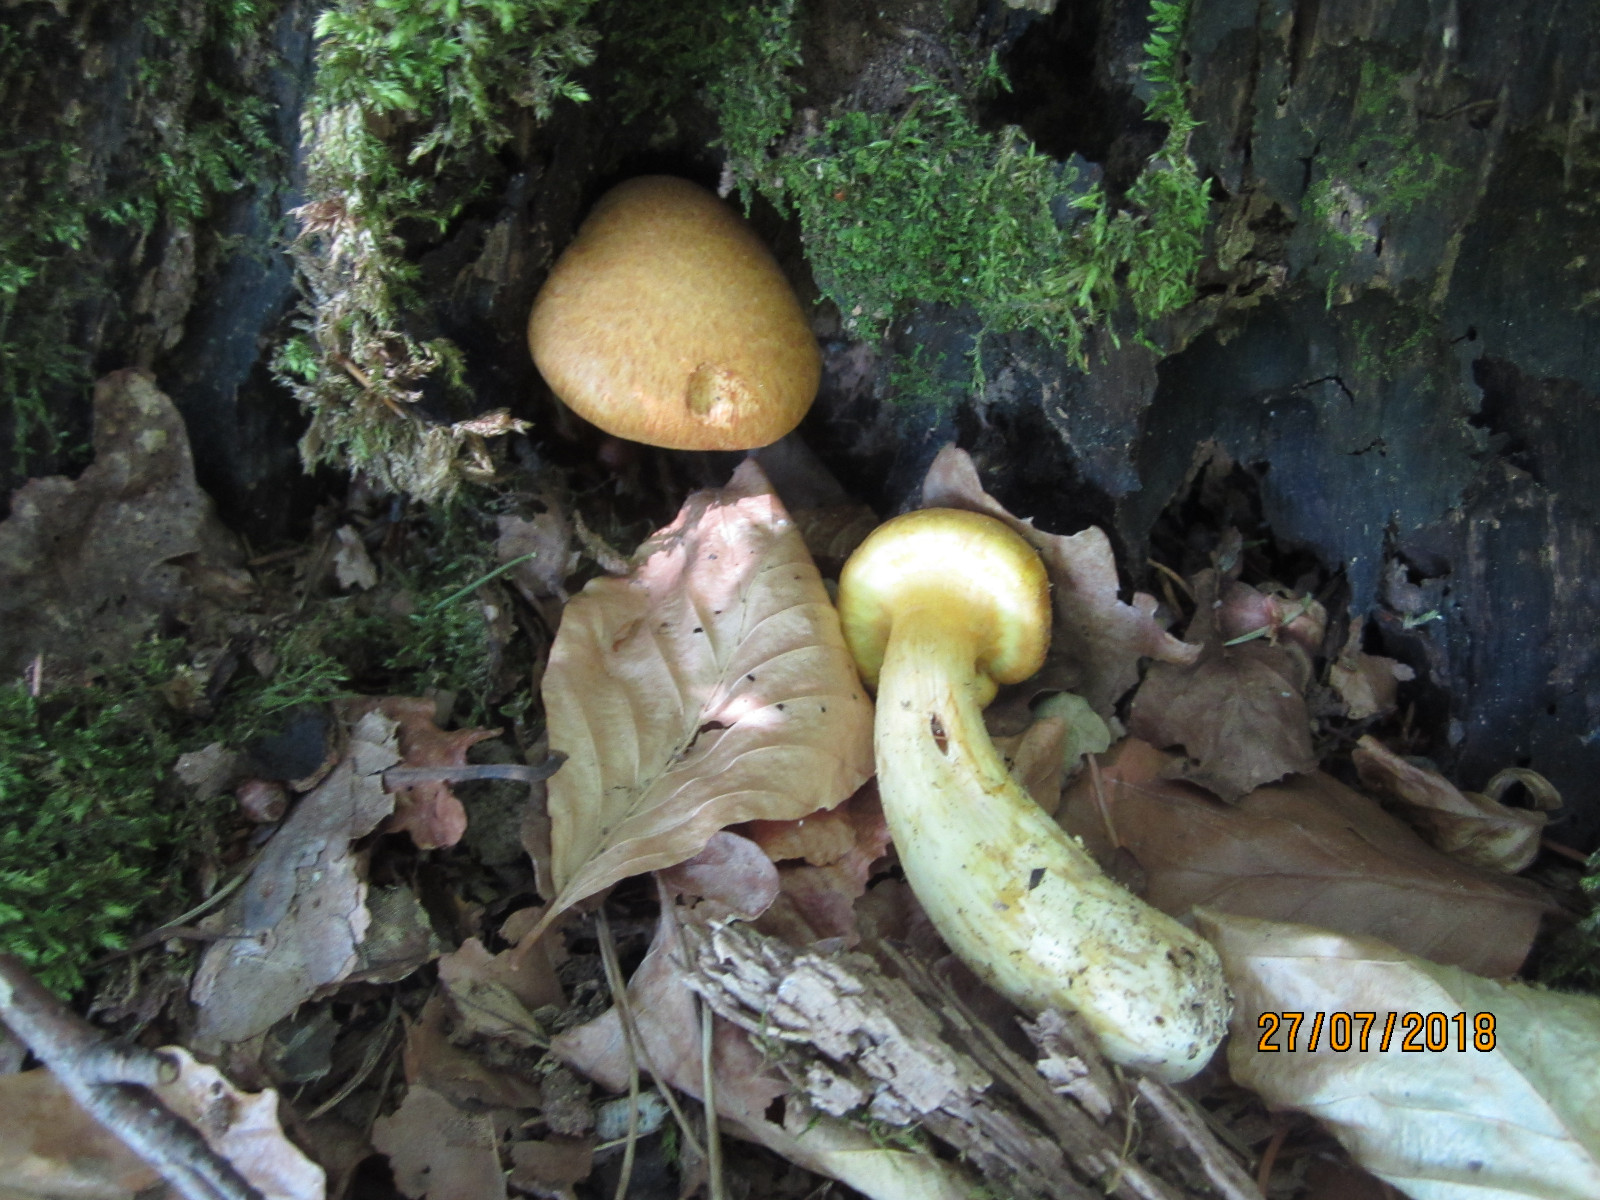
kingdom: Fungi
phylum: Basidiomycota
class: Agaricomycetes
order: Boletales
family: Suillaceae
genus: Suillus
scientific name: Suillus grevillei
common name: lærke-slimrørhat
